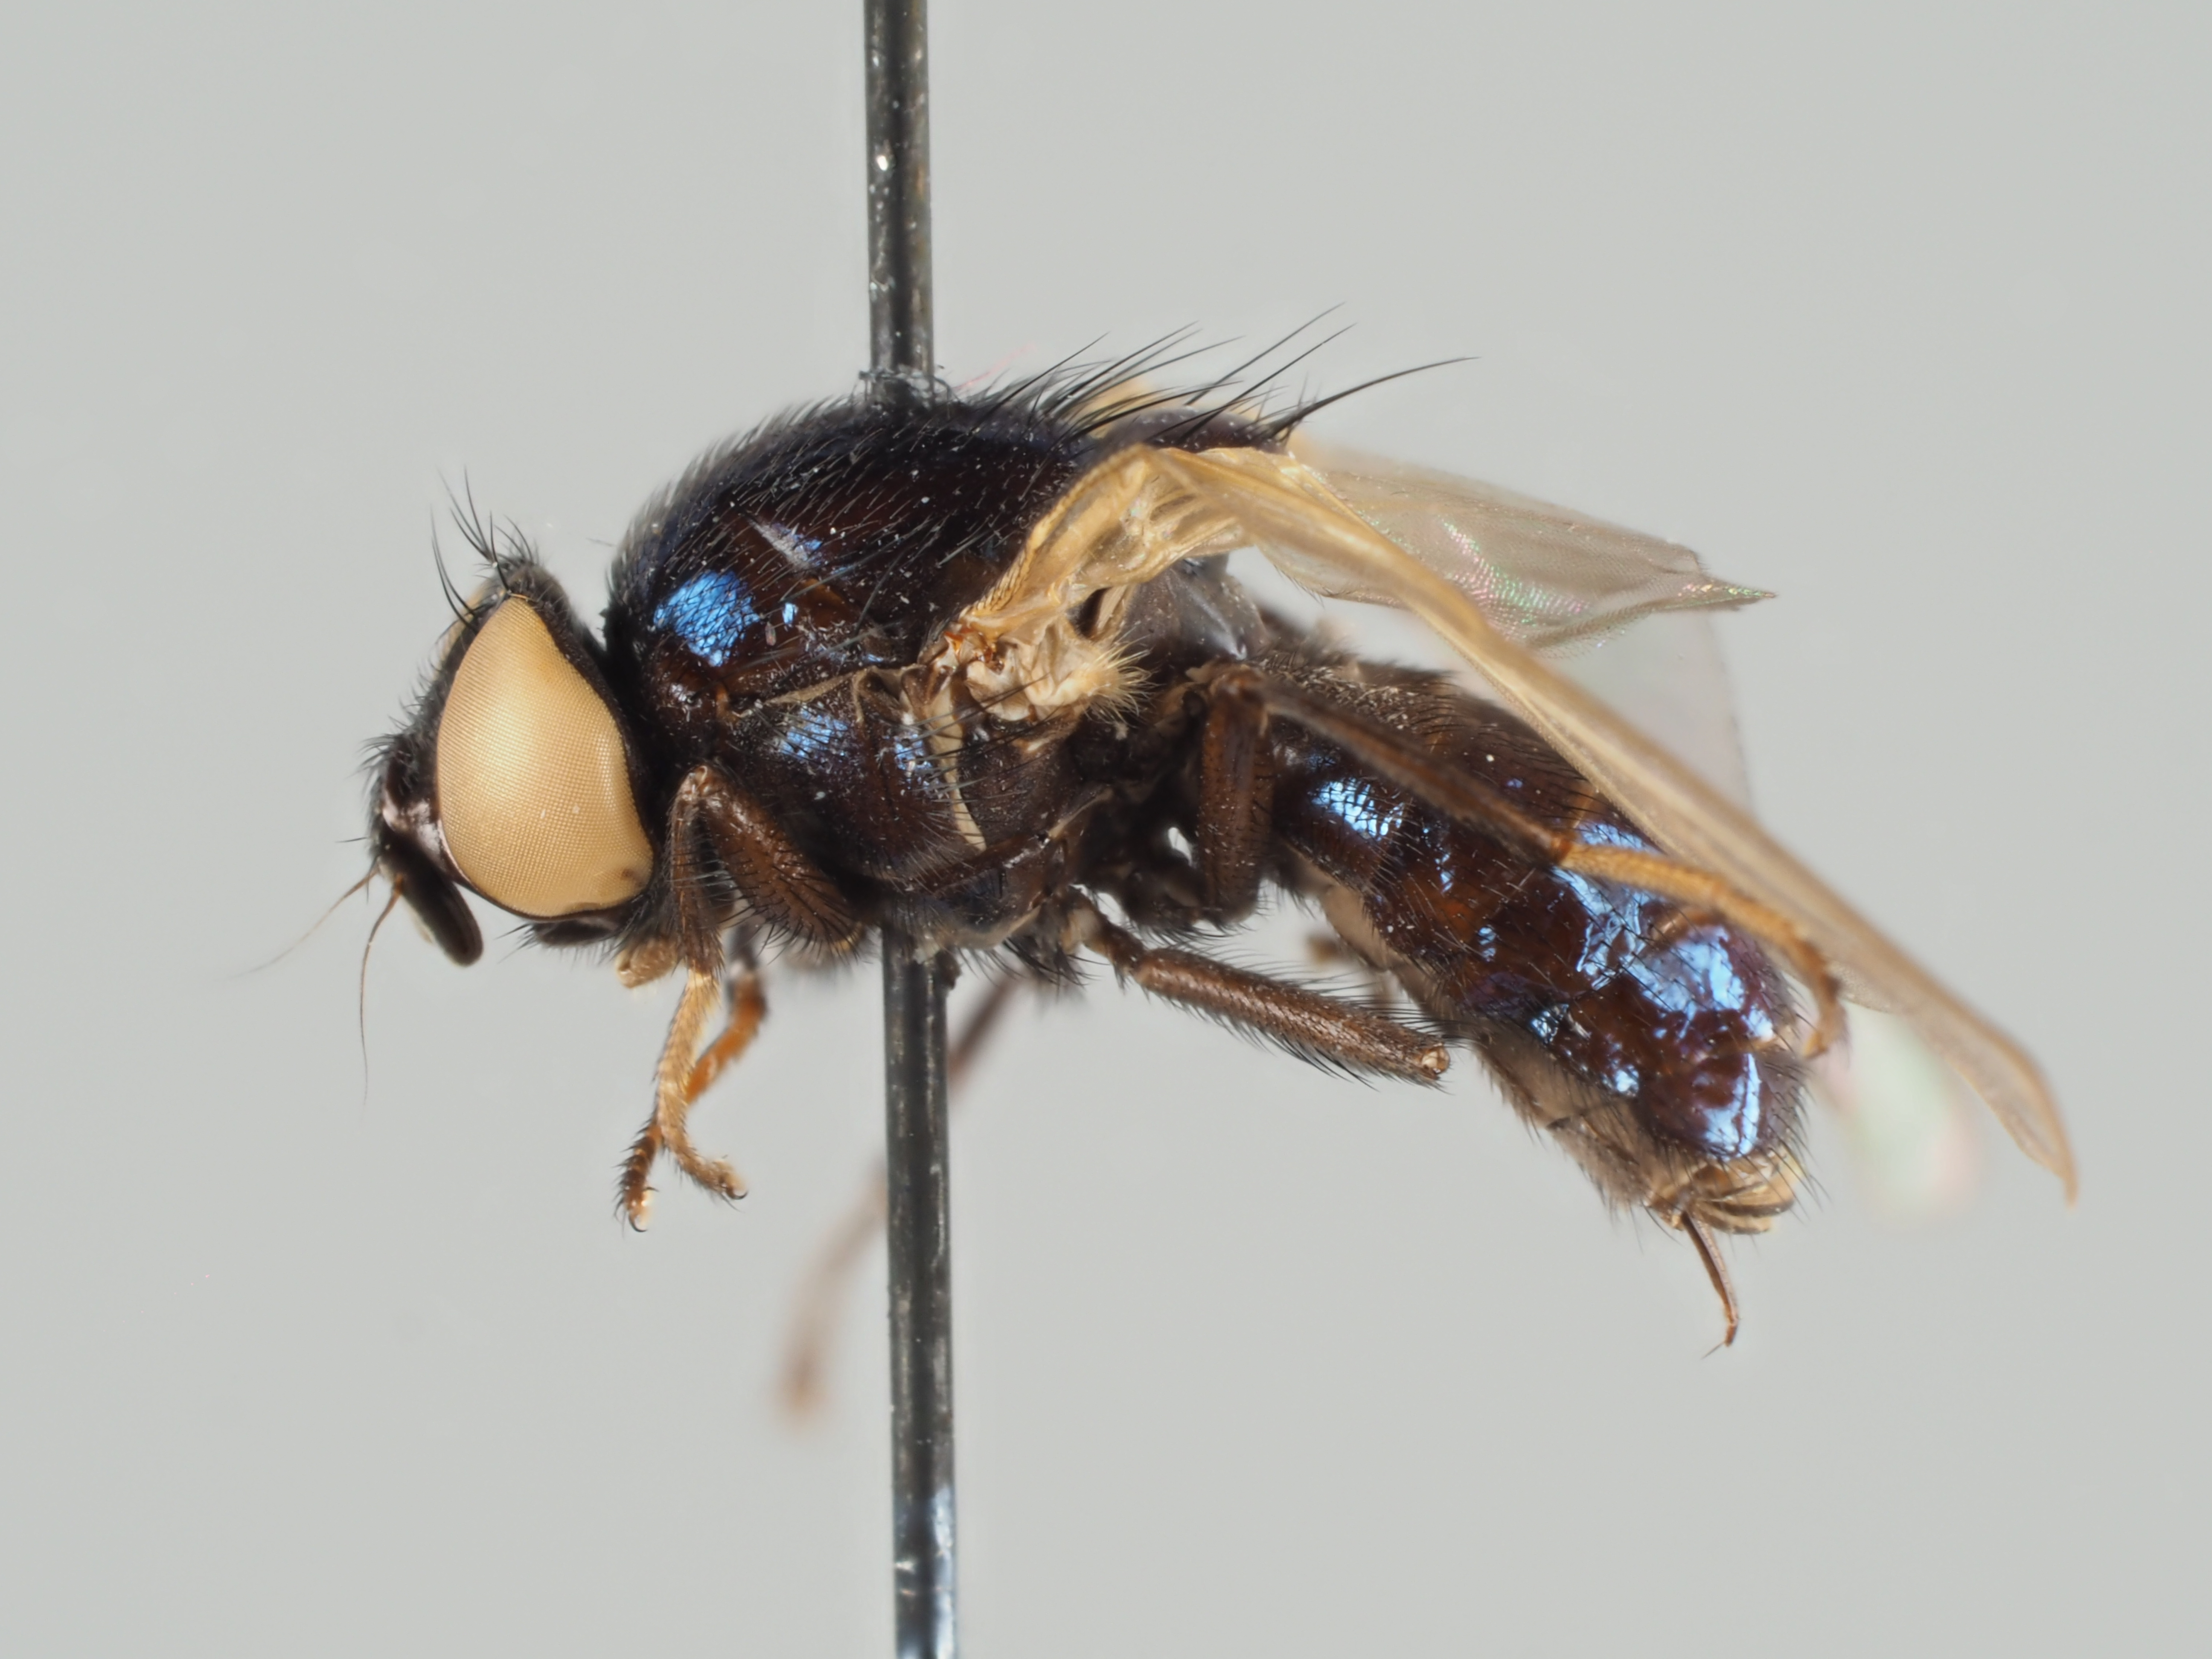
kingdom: Animalia
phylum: Arthropoda
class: Insecta
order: Diptera
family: Lonchaeidae
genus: Lonchaea
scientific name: Lonchaea hackmani
